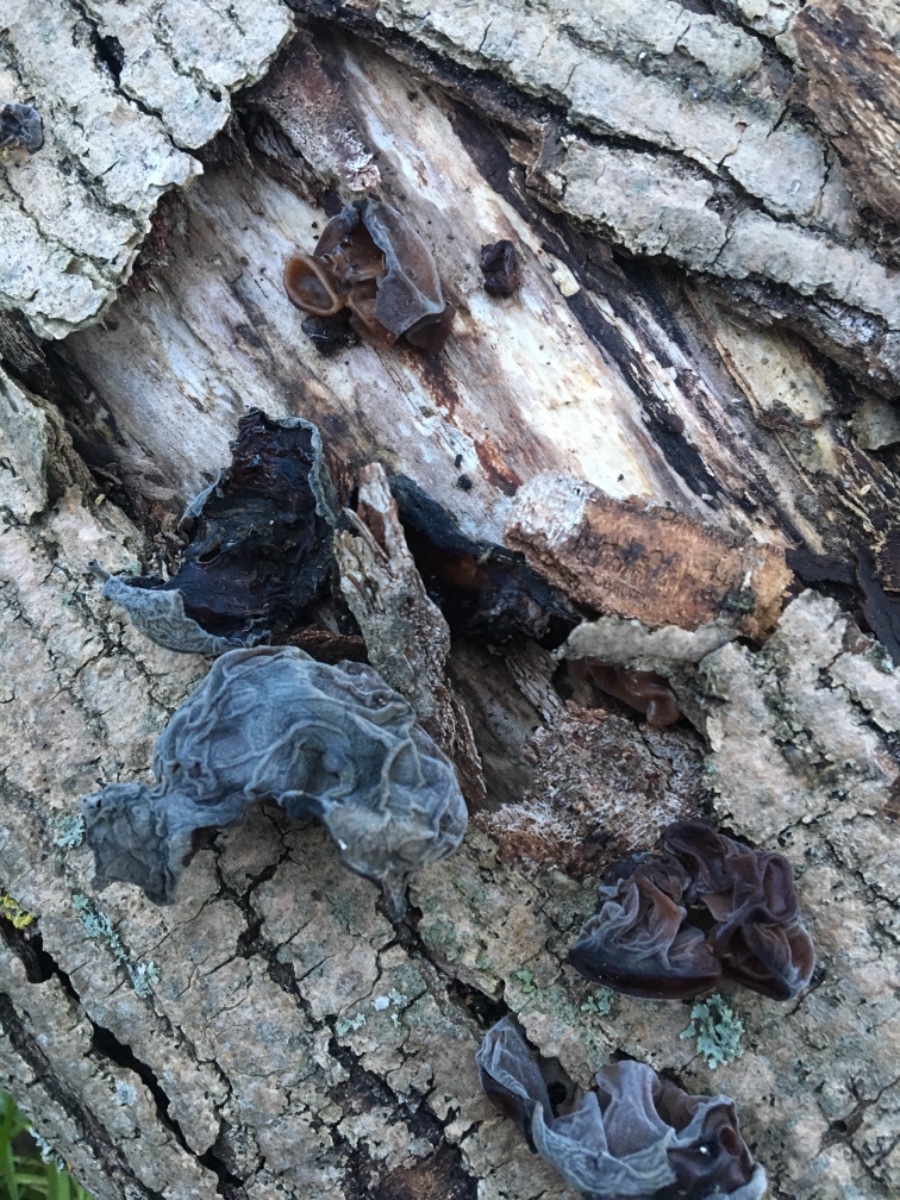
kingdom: Fungi
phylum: Basidiomycota
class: Agaricomycetes
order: Auriculariales
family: Auriculariaceae
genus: Auricularia
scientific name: Auricularia auricula-judae
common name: almindelig judasøre
